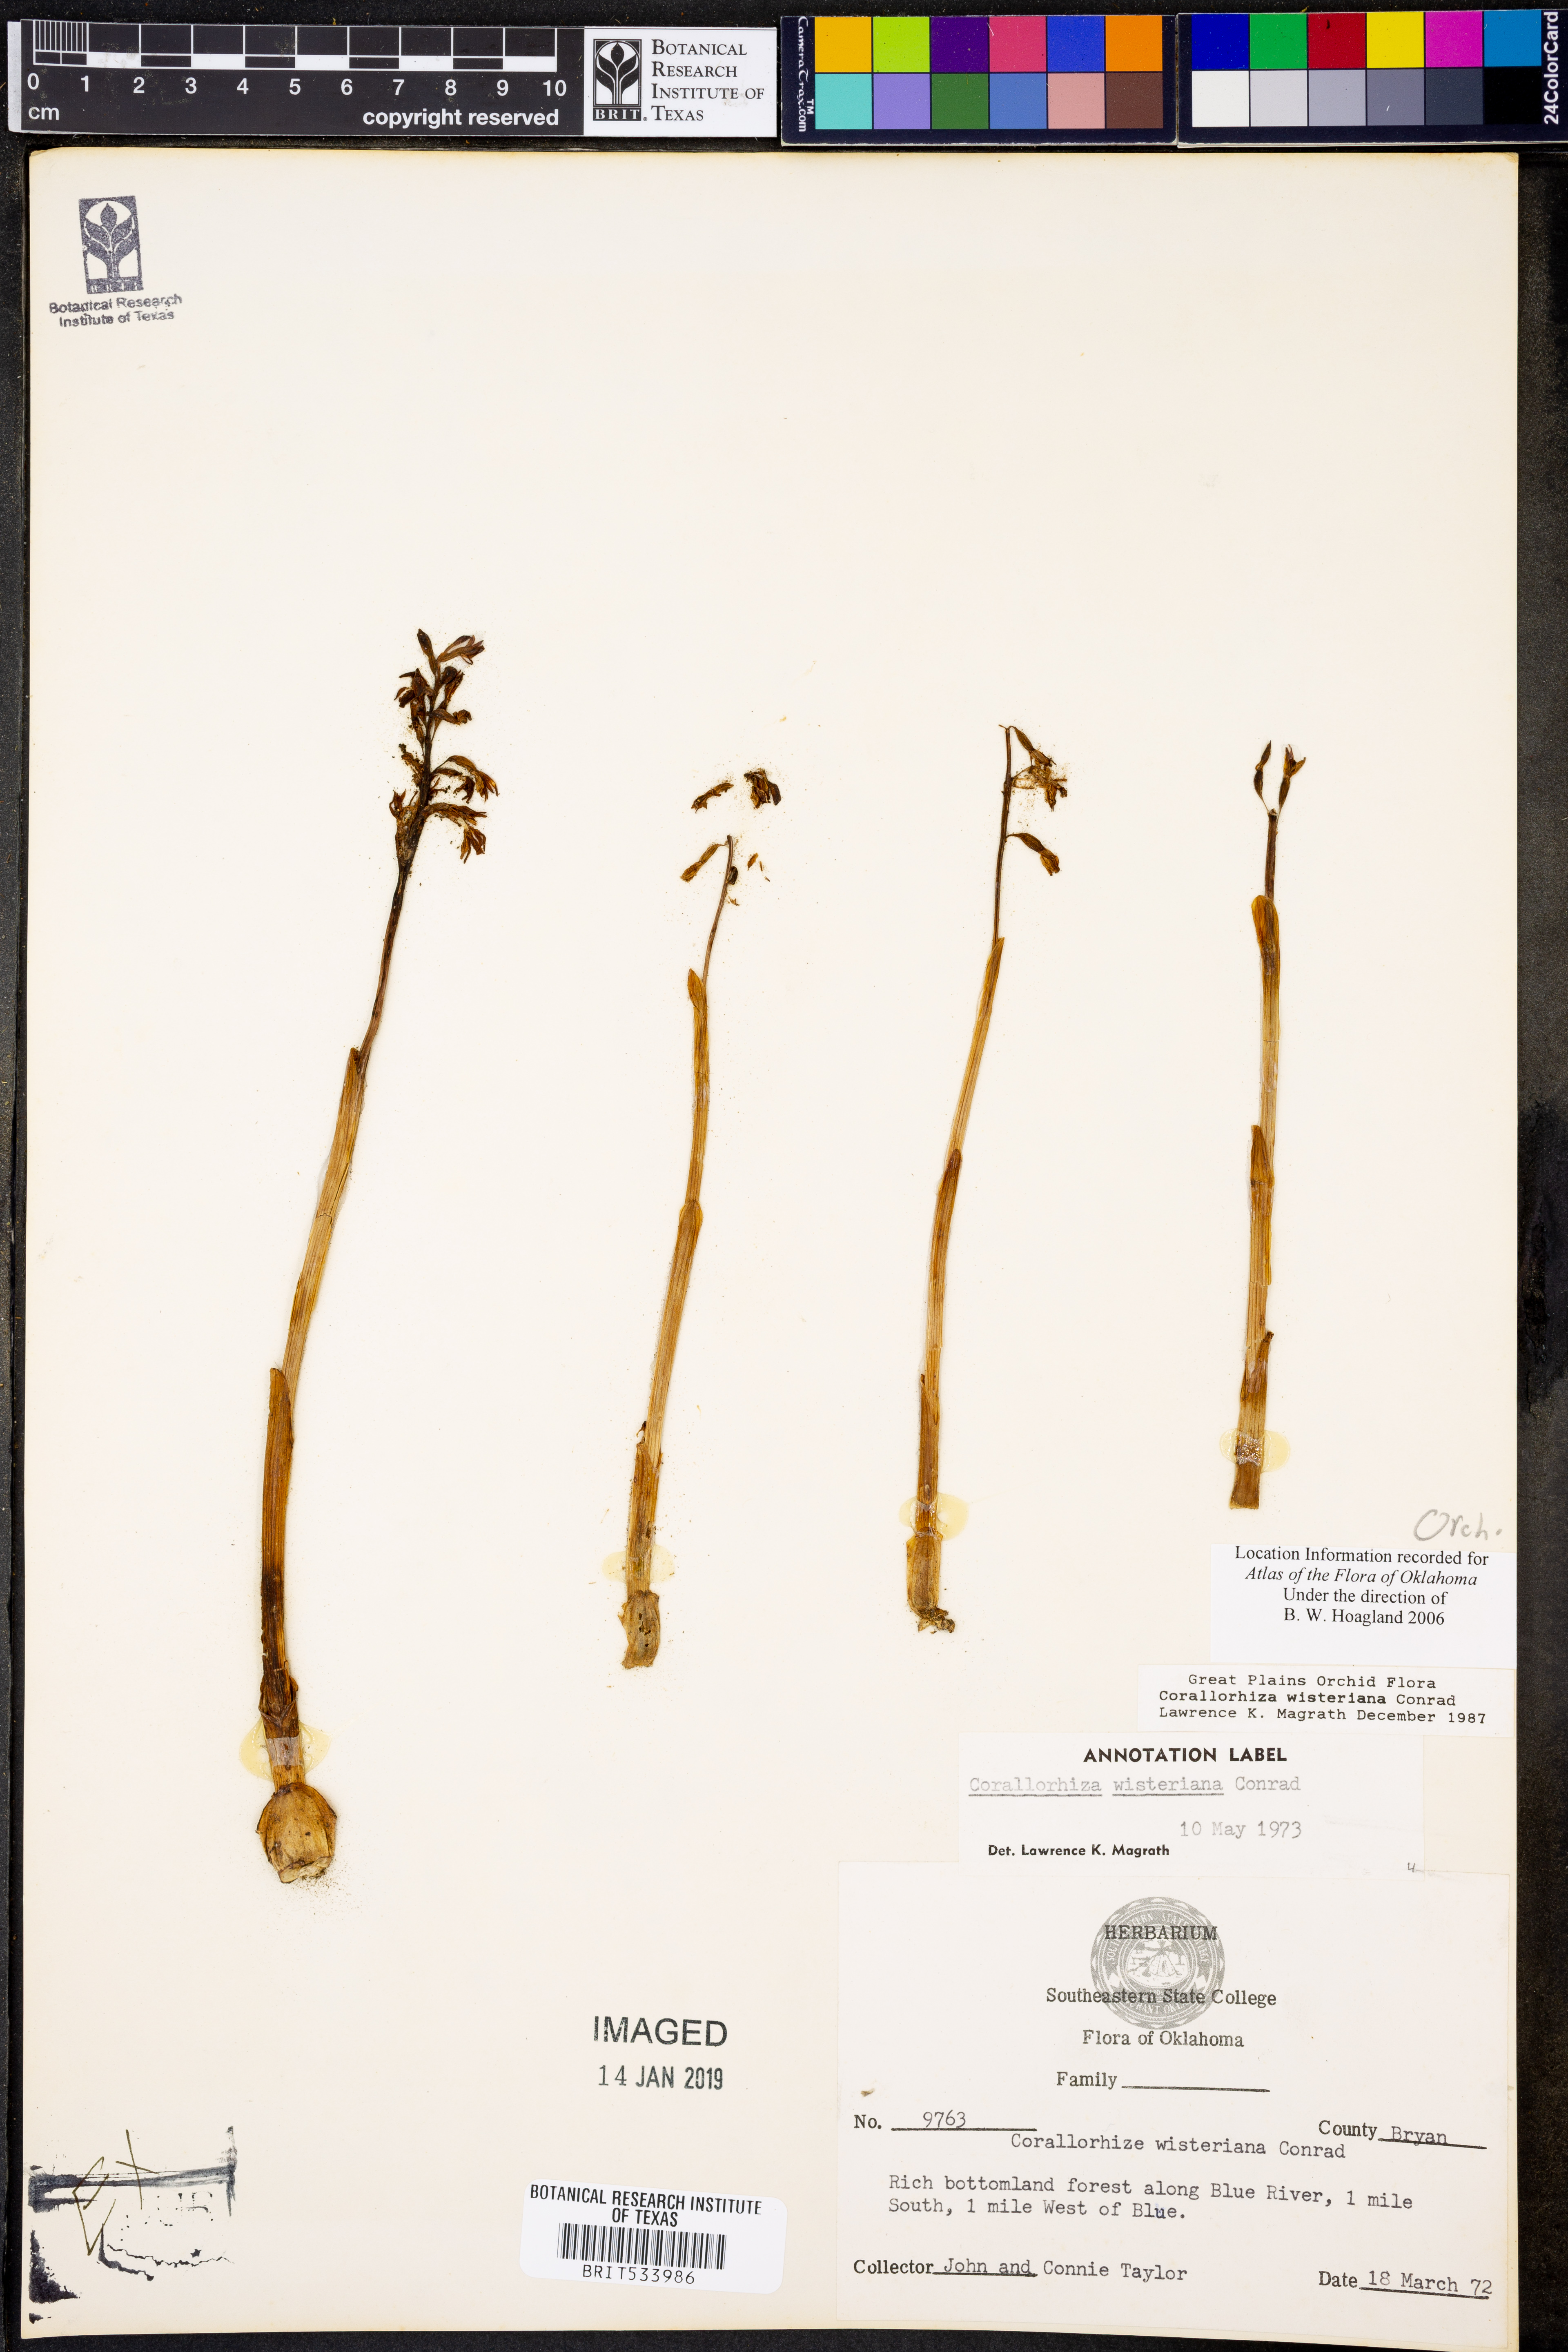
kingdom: Plantae
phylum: Tracheophyta
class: Liliopsida
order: Asparagales
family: Orchidaceae
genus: Corallorhiza
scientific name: Corallorhiza wisteriana
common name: Spring coralroot
